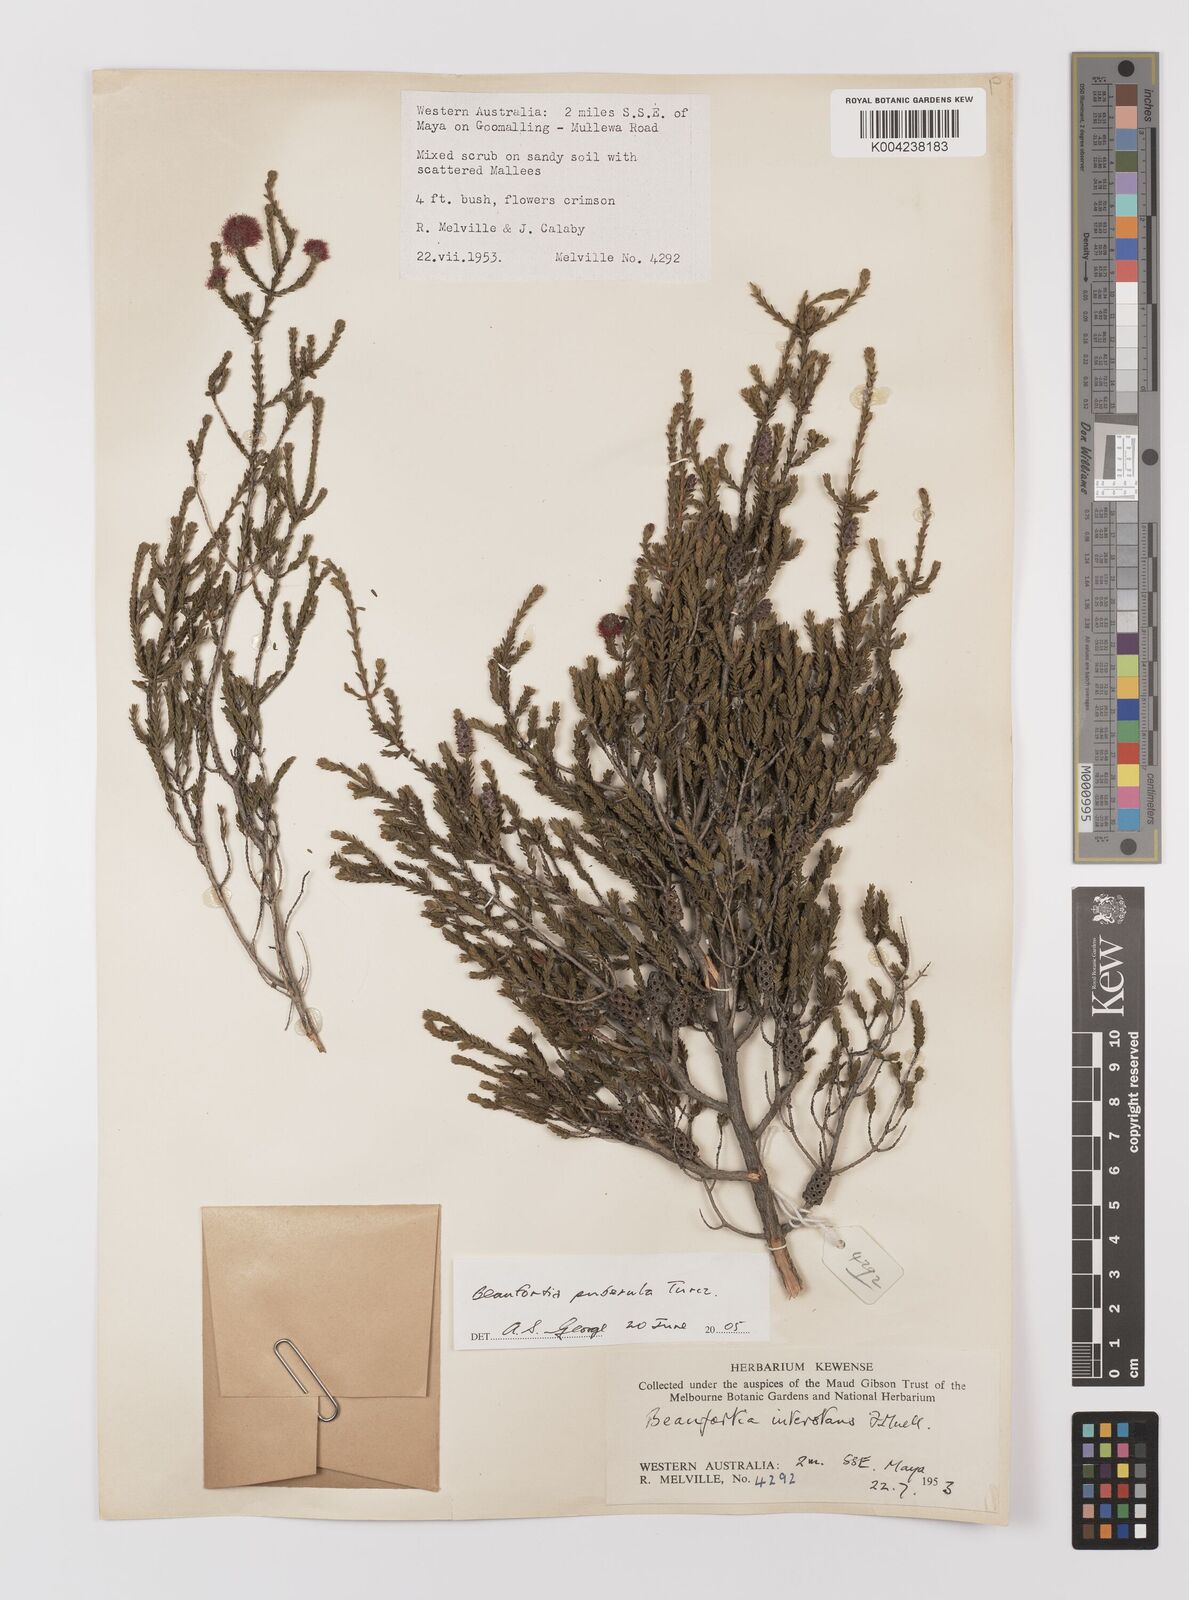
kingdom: Plantae
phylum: Tracheophyta
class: Magnoliopsida
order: Myrtales
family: Myrtaceae
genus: Melaleuca
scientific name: Melaleuca micrantha
